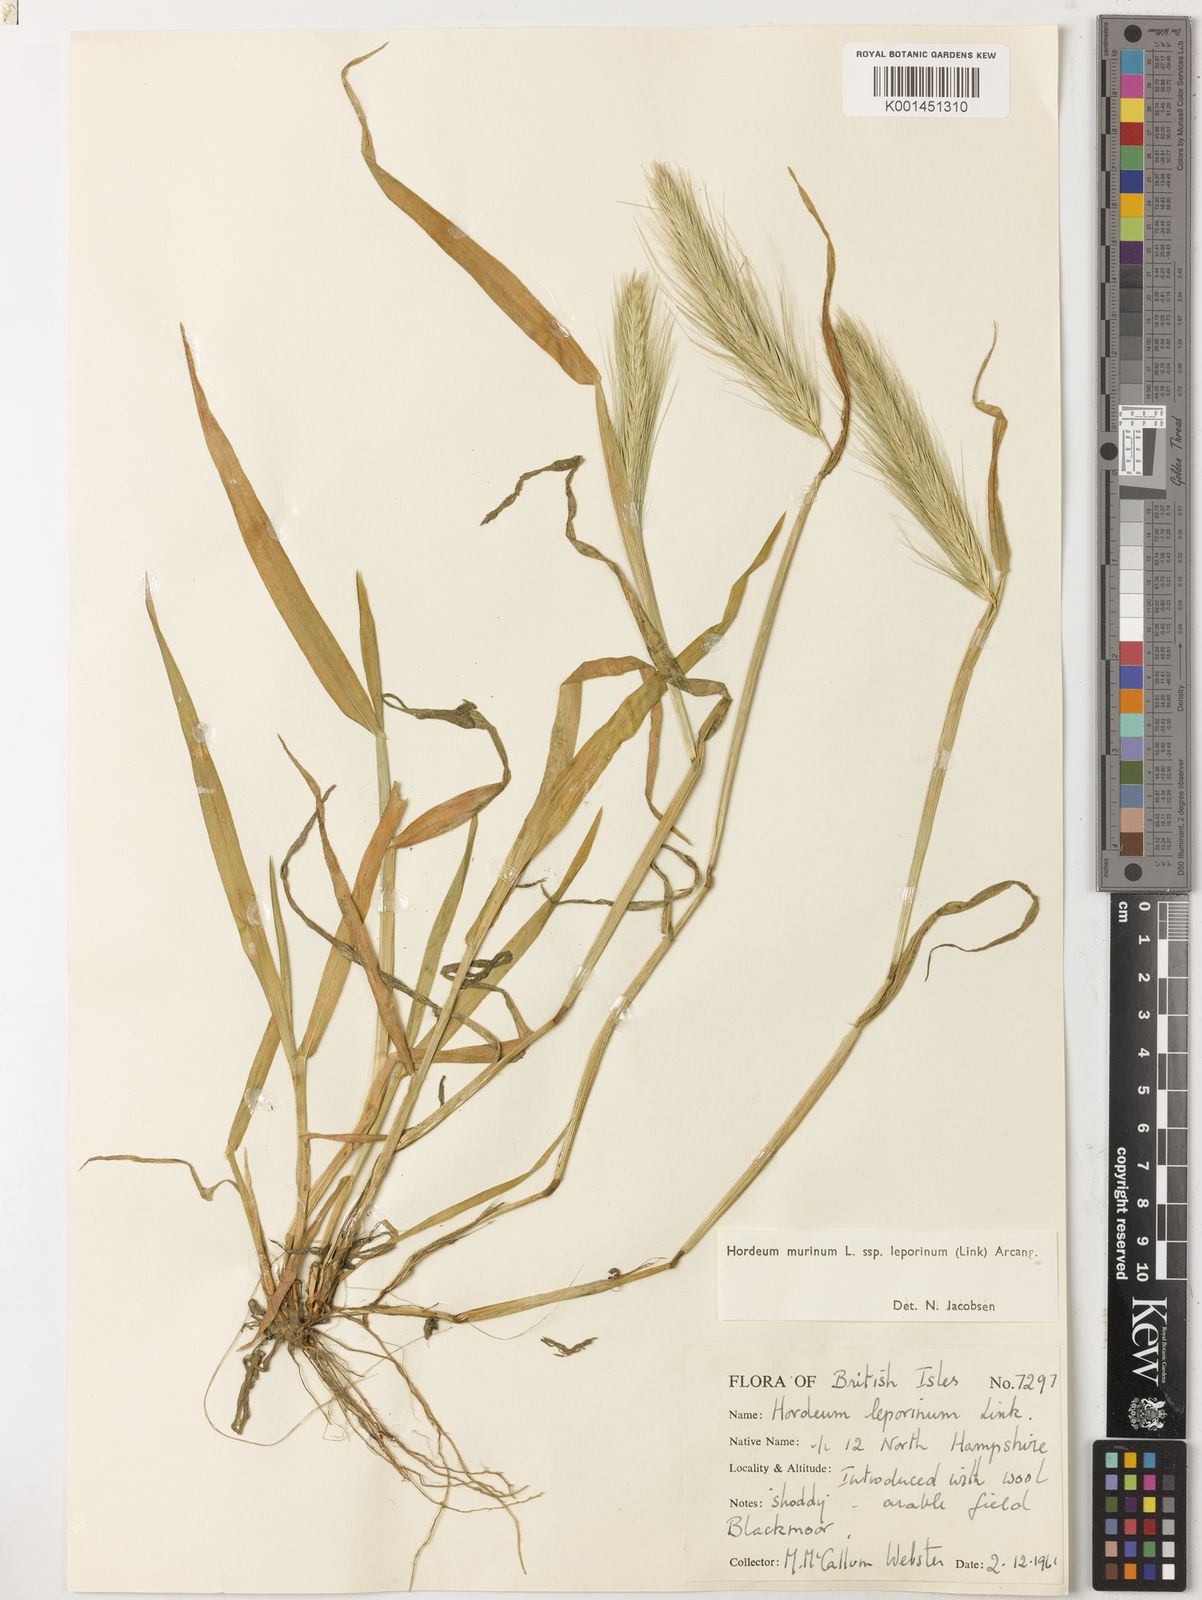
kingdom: Plantae
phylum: Tracheophyta
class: Liliopsida
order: Poales
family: Poaceae
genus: Hordeum
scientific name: Hordeum murinum
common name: Wall barley
